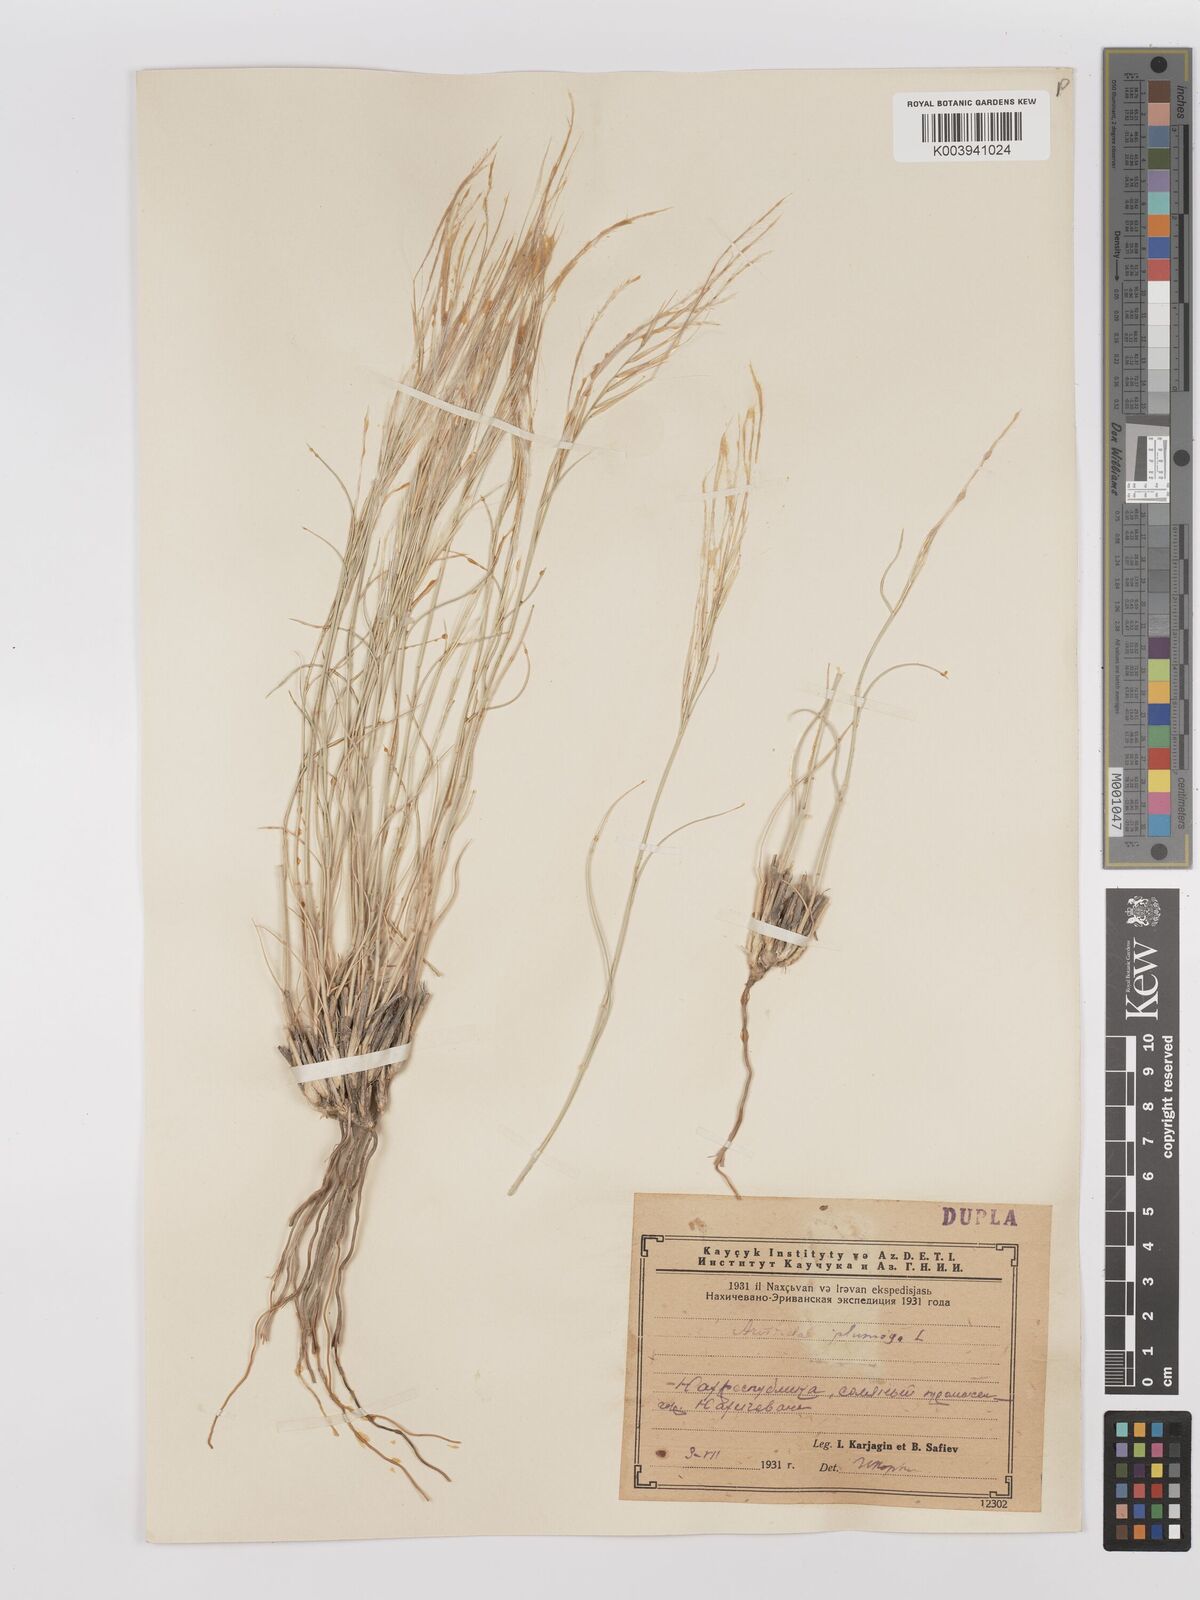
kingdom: Plantae
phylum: Tracheophyta
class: Liliopsida
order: Poales
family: Poaceae
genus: Stipagrostis
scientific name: Stipagrostis plumosa
